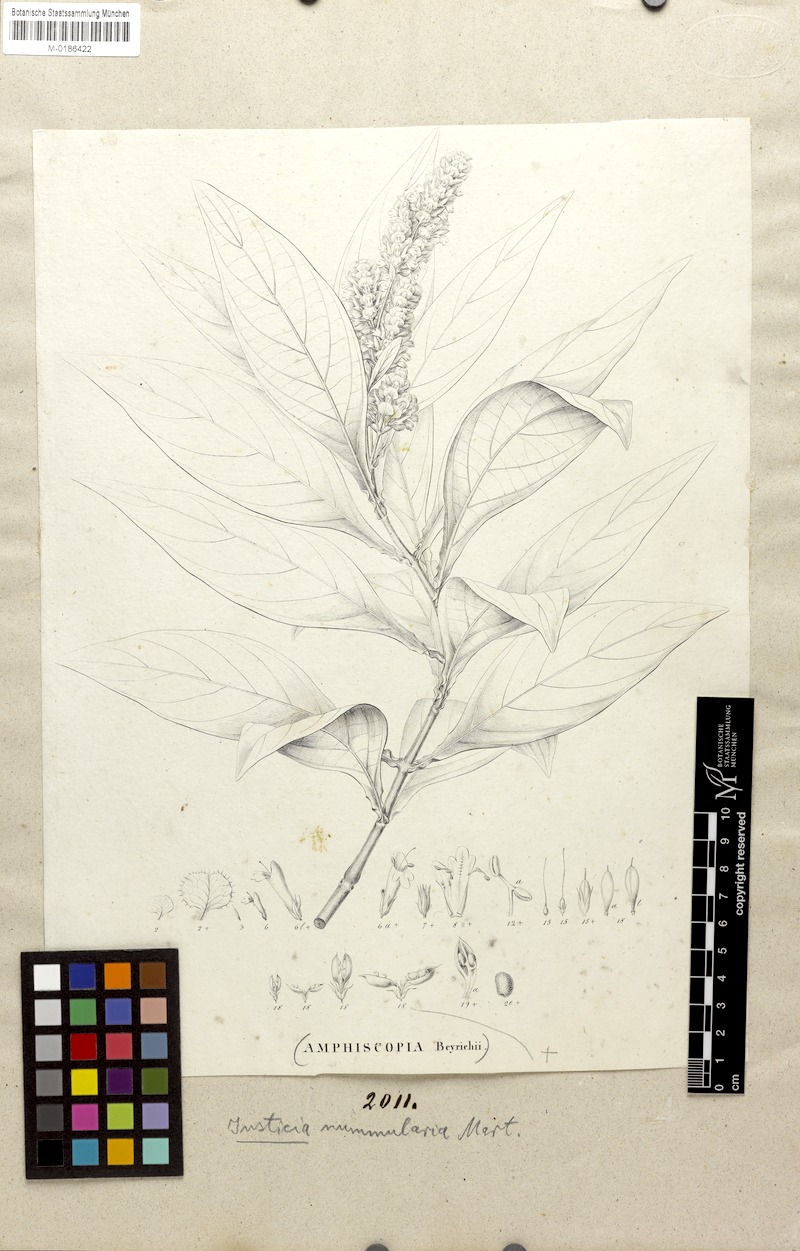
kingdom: Plantae
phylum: Tracheophyta
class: Magnoliopsida
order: Lamiales
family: Acanthaceae
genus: Dianthera
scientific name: Dianthera brasiliensis
